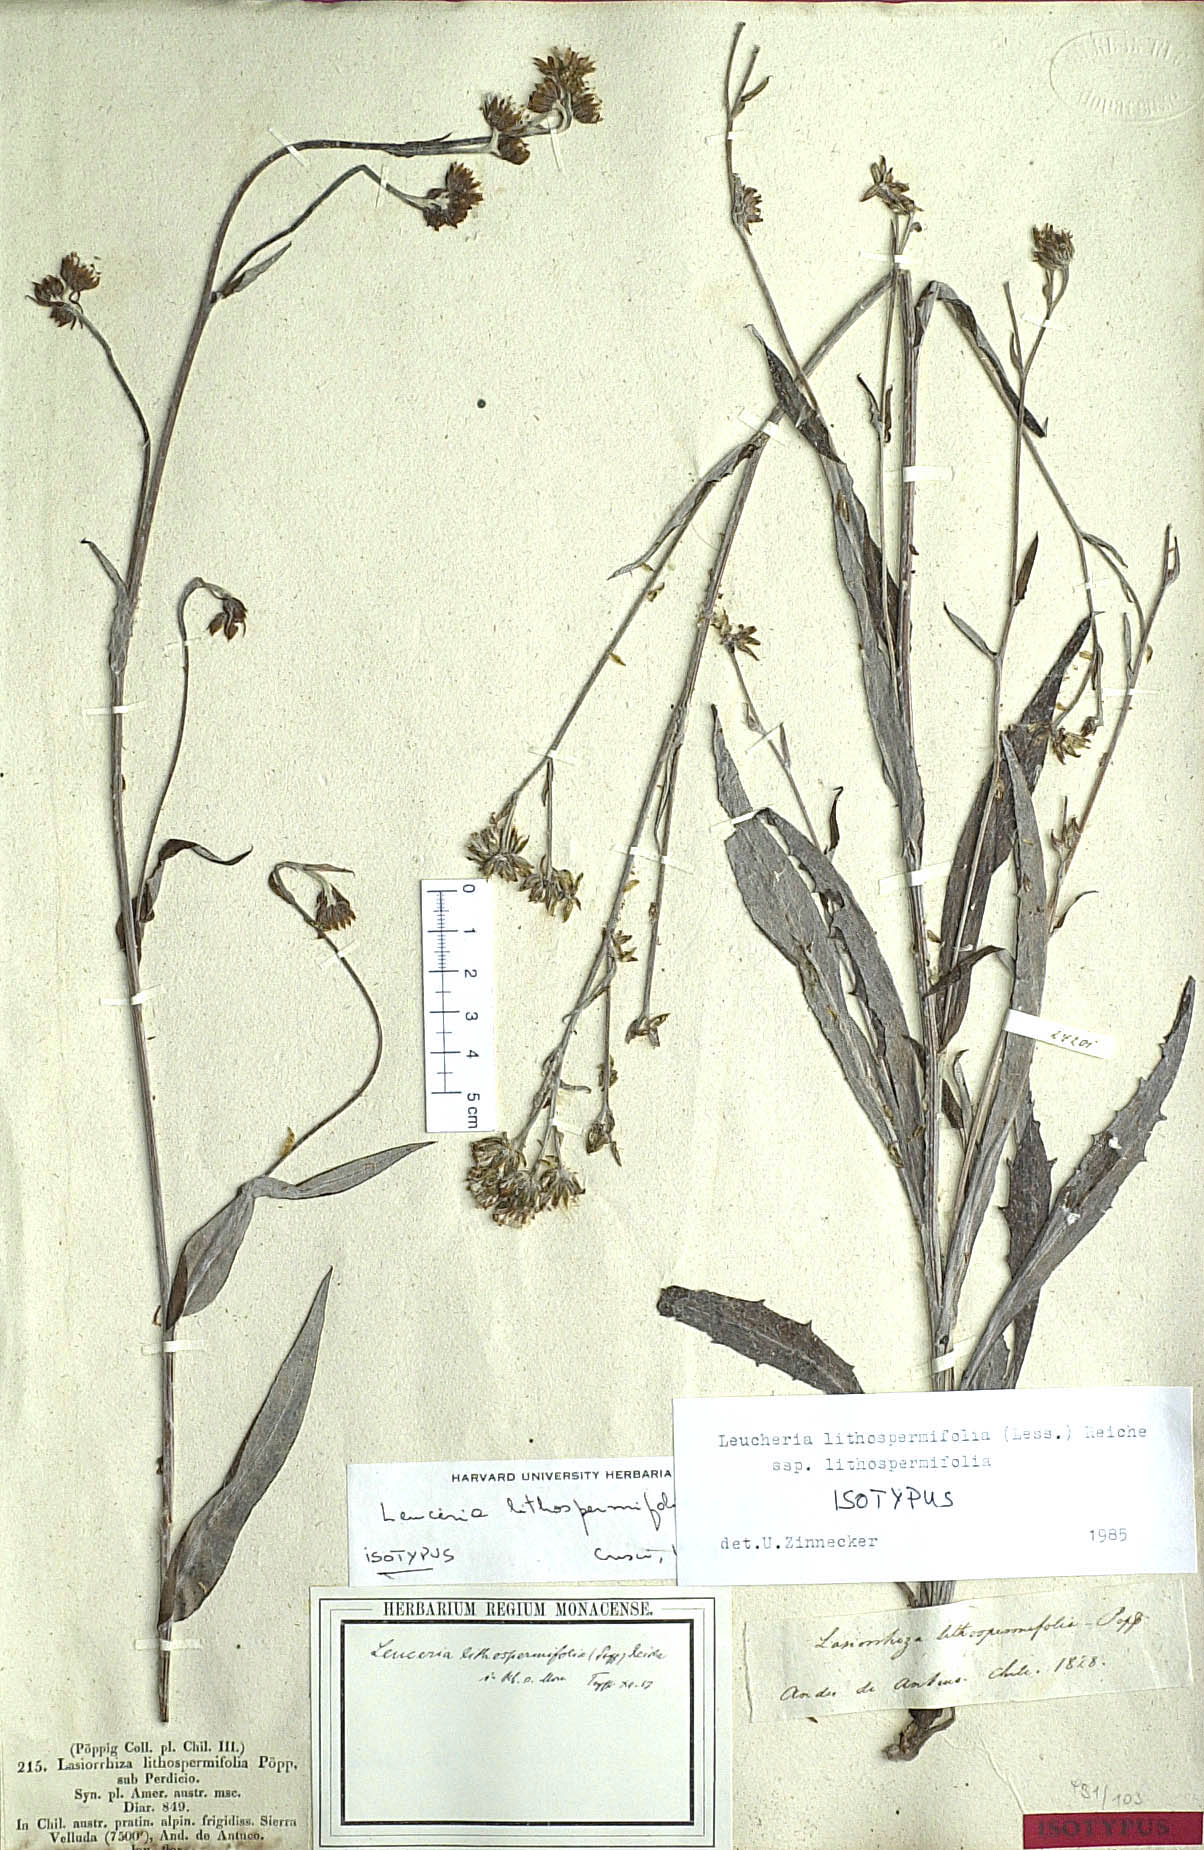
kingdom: Plantae
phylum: Tracheophyta
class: Magnoliopsida
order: Asterales
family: Asteraceae
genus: Leucheria
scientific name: Leucheria lithospermifolia
